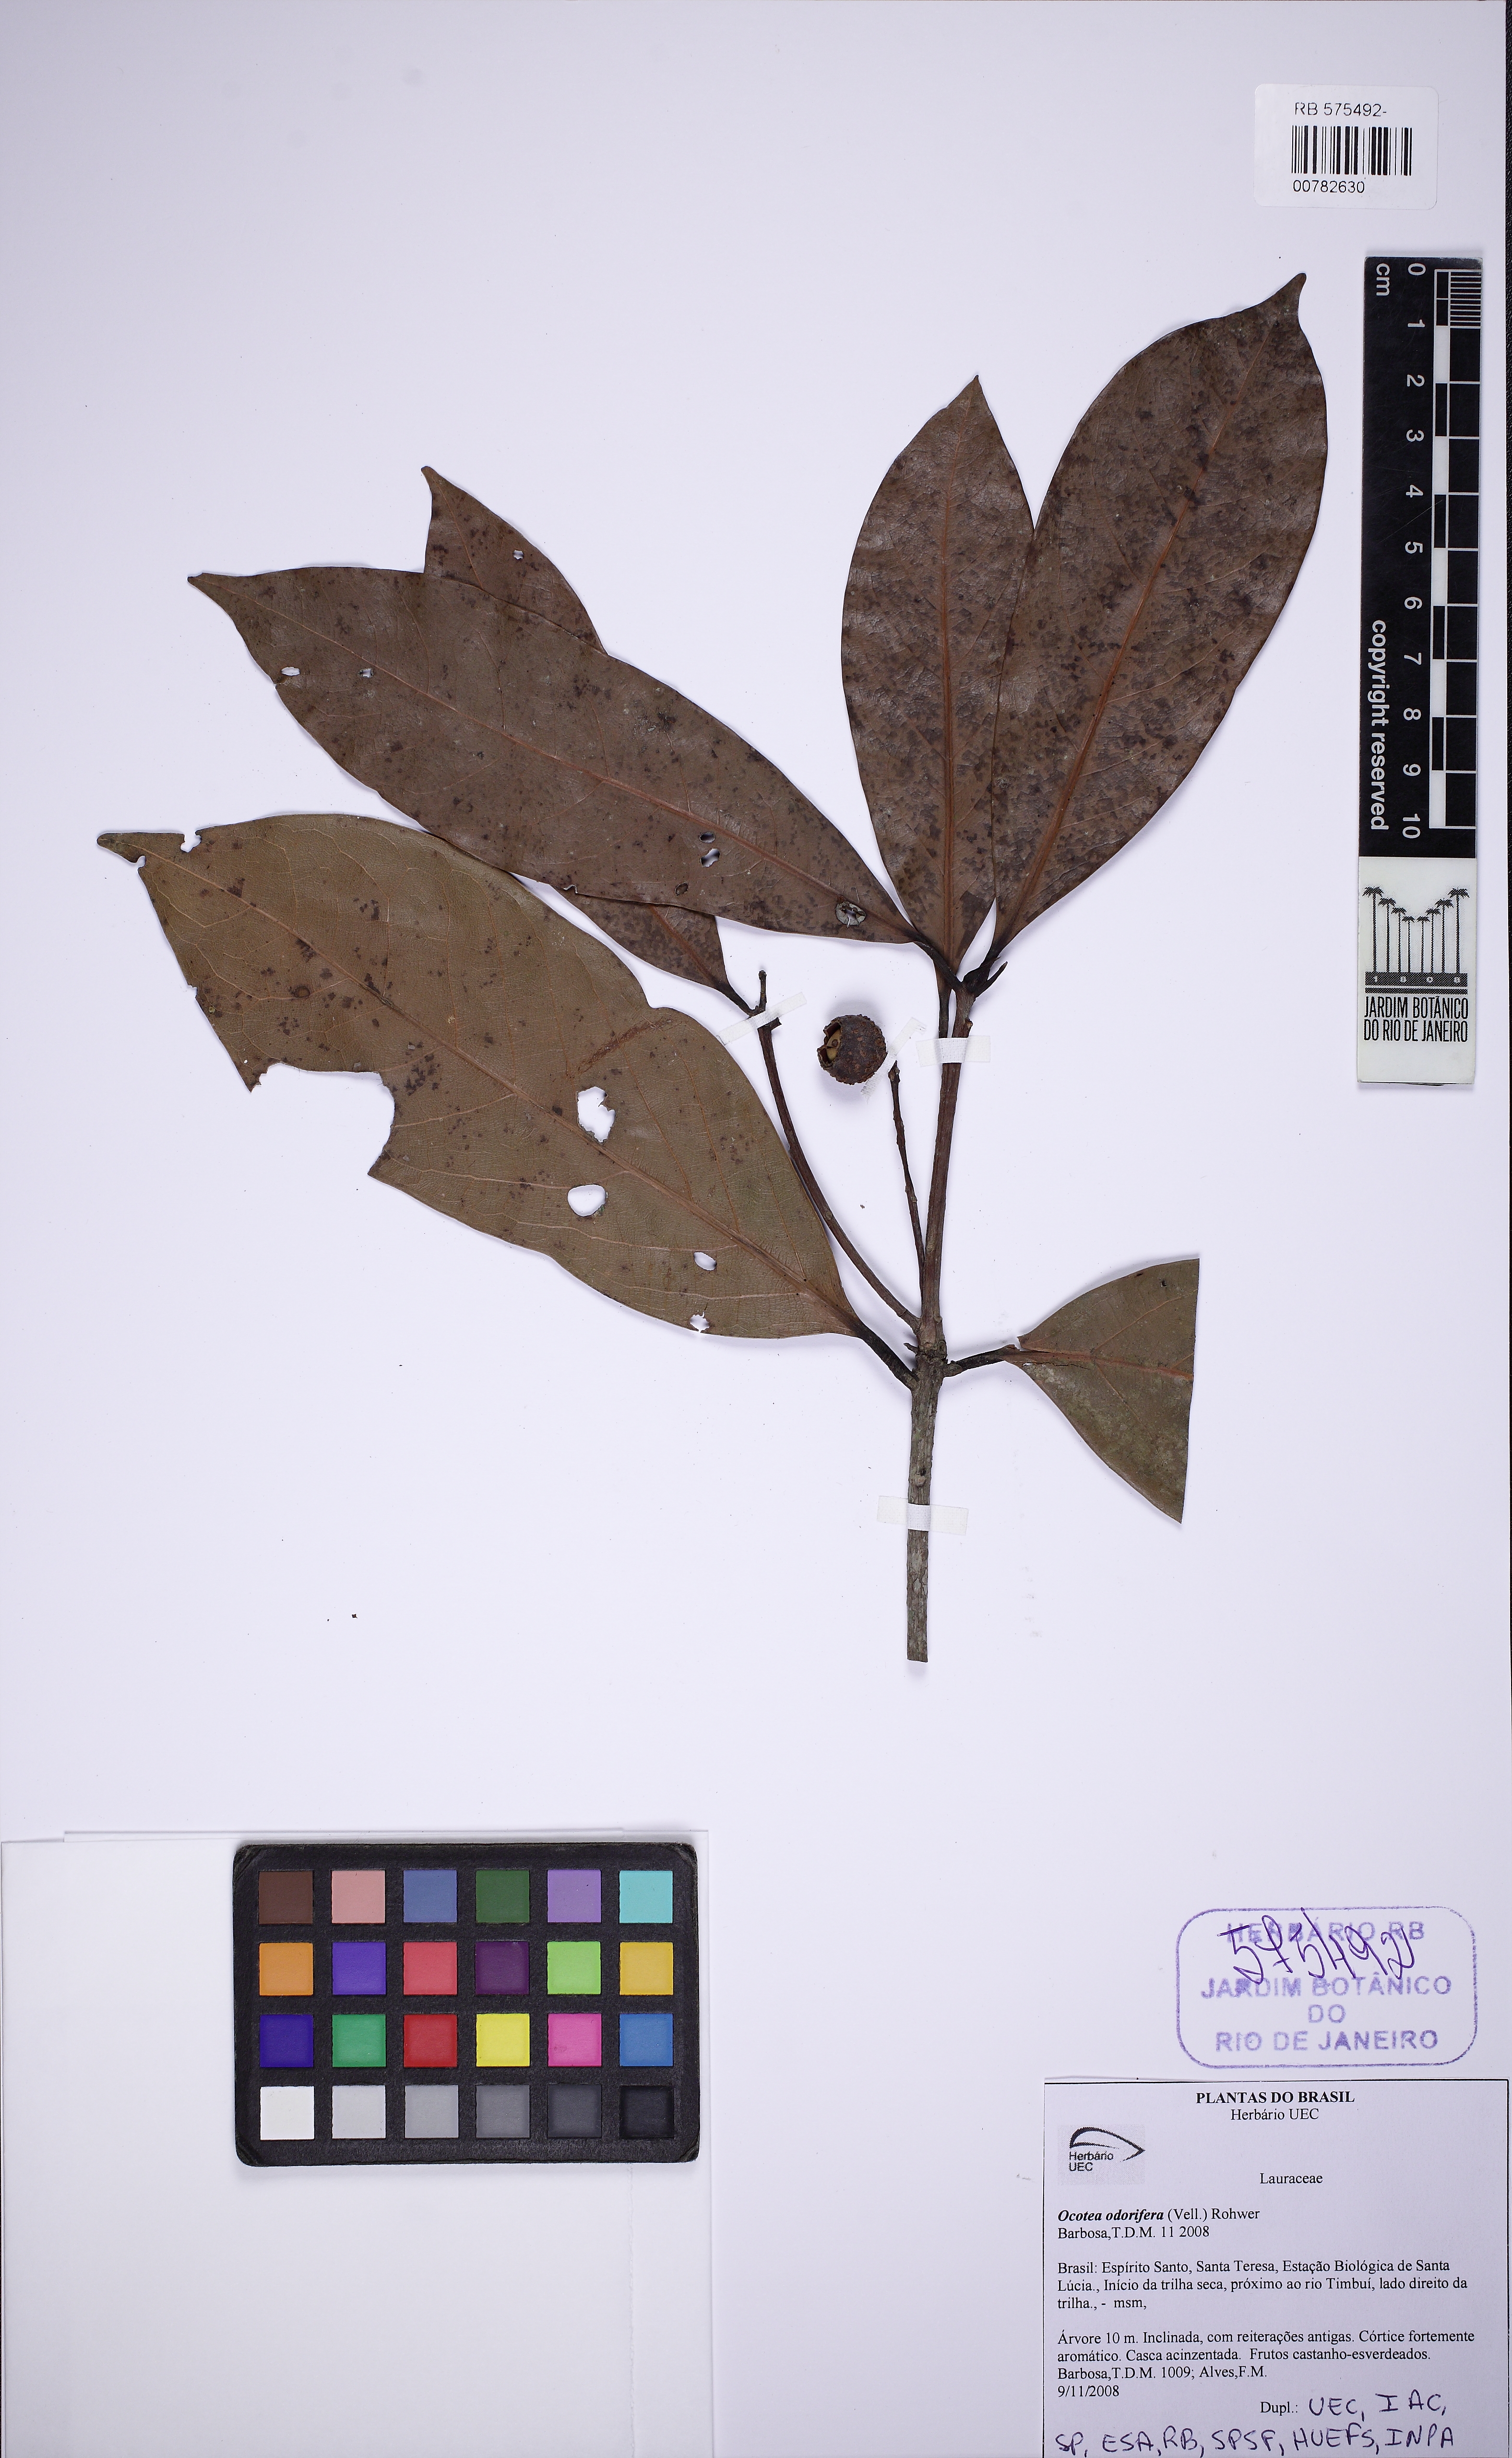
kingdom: Plantae
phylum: Tracheophyta
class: Magnoliopsida
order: Laurales
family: Lauraceae
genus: Mespilodaphne
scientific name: Mespilodaphne quixos
